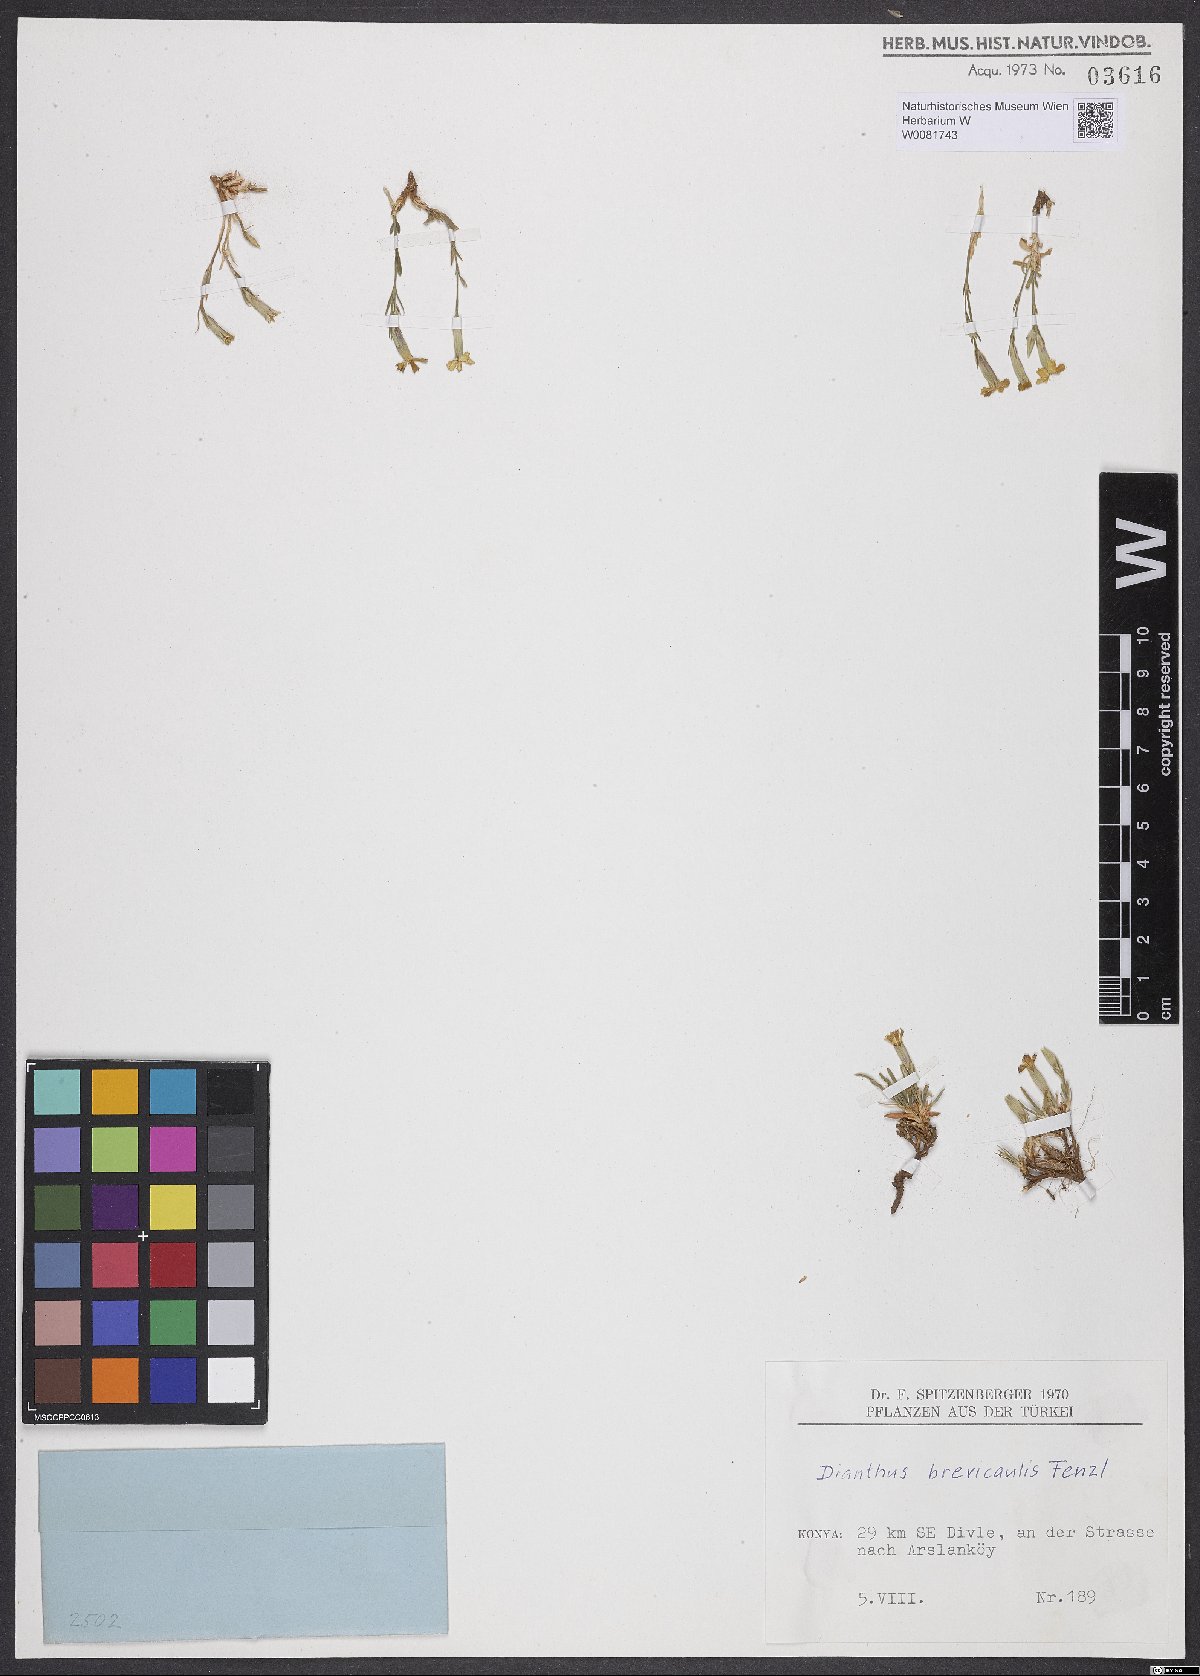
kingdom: Plantae
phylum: Tracheophyta
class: Magnoliopsida
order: Caryophyllales
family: Caryophyllaceae
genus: Dianthus
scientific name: Dianthus brevicaulis
